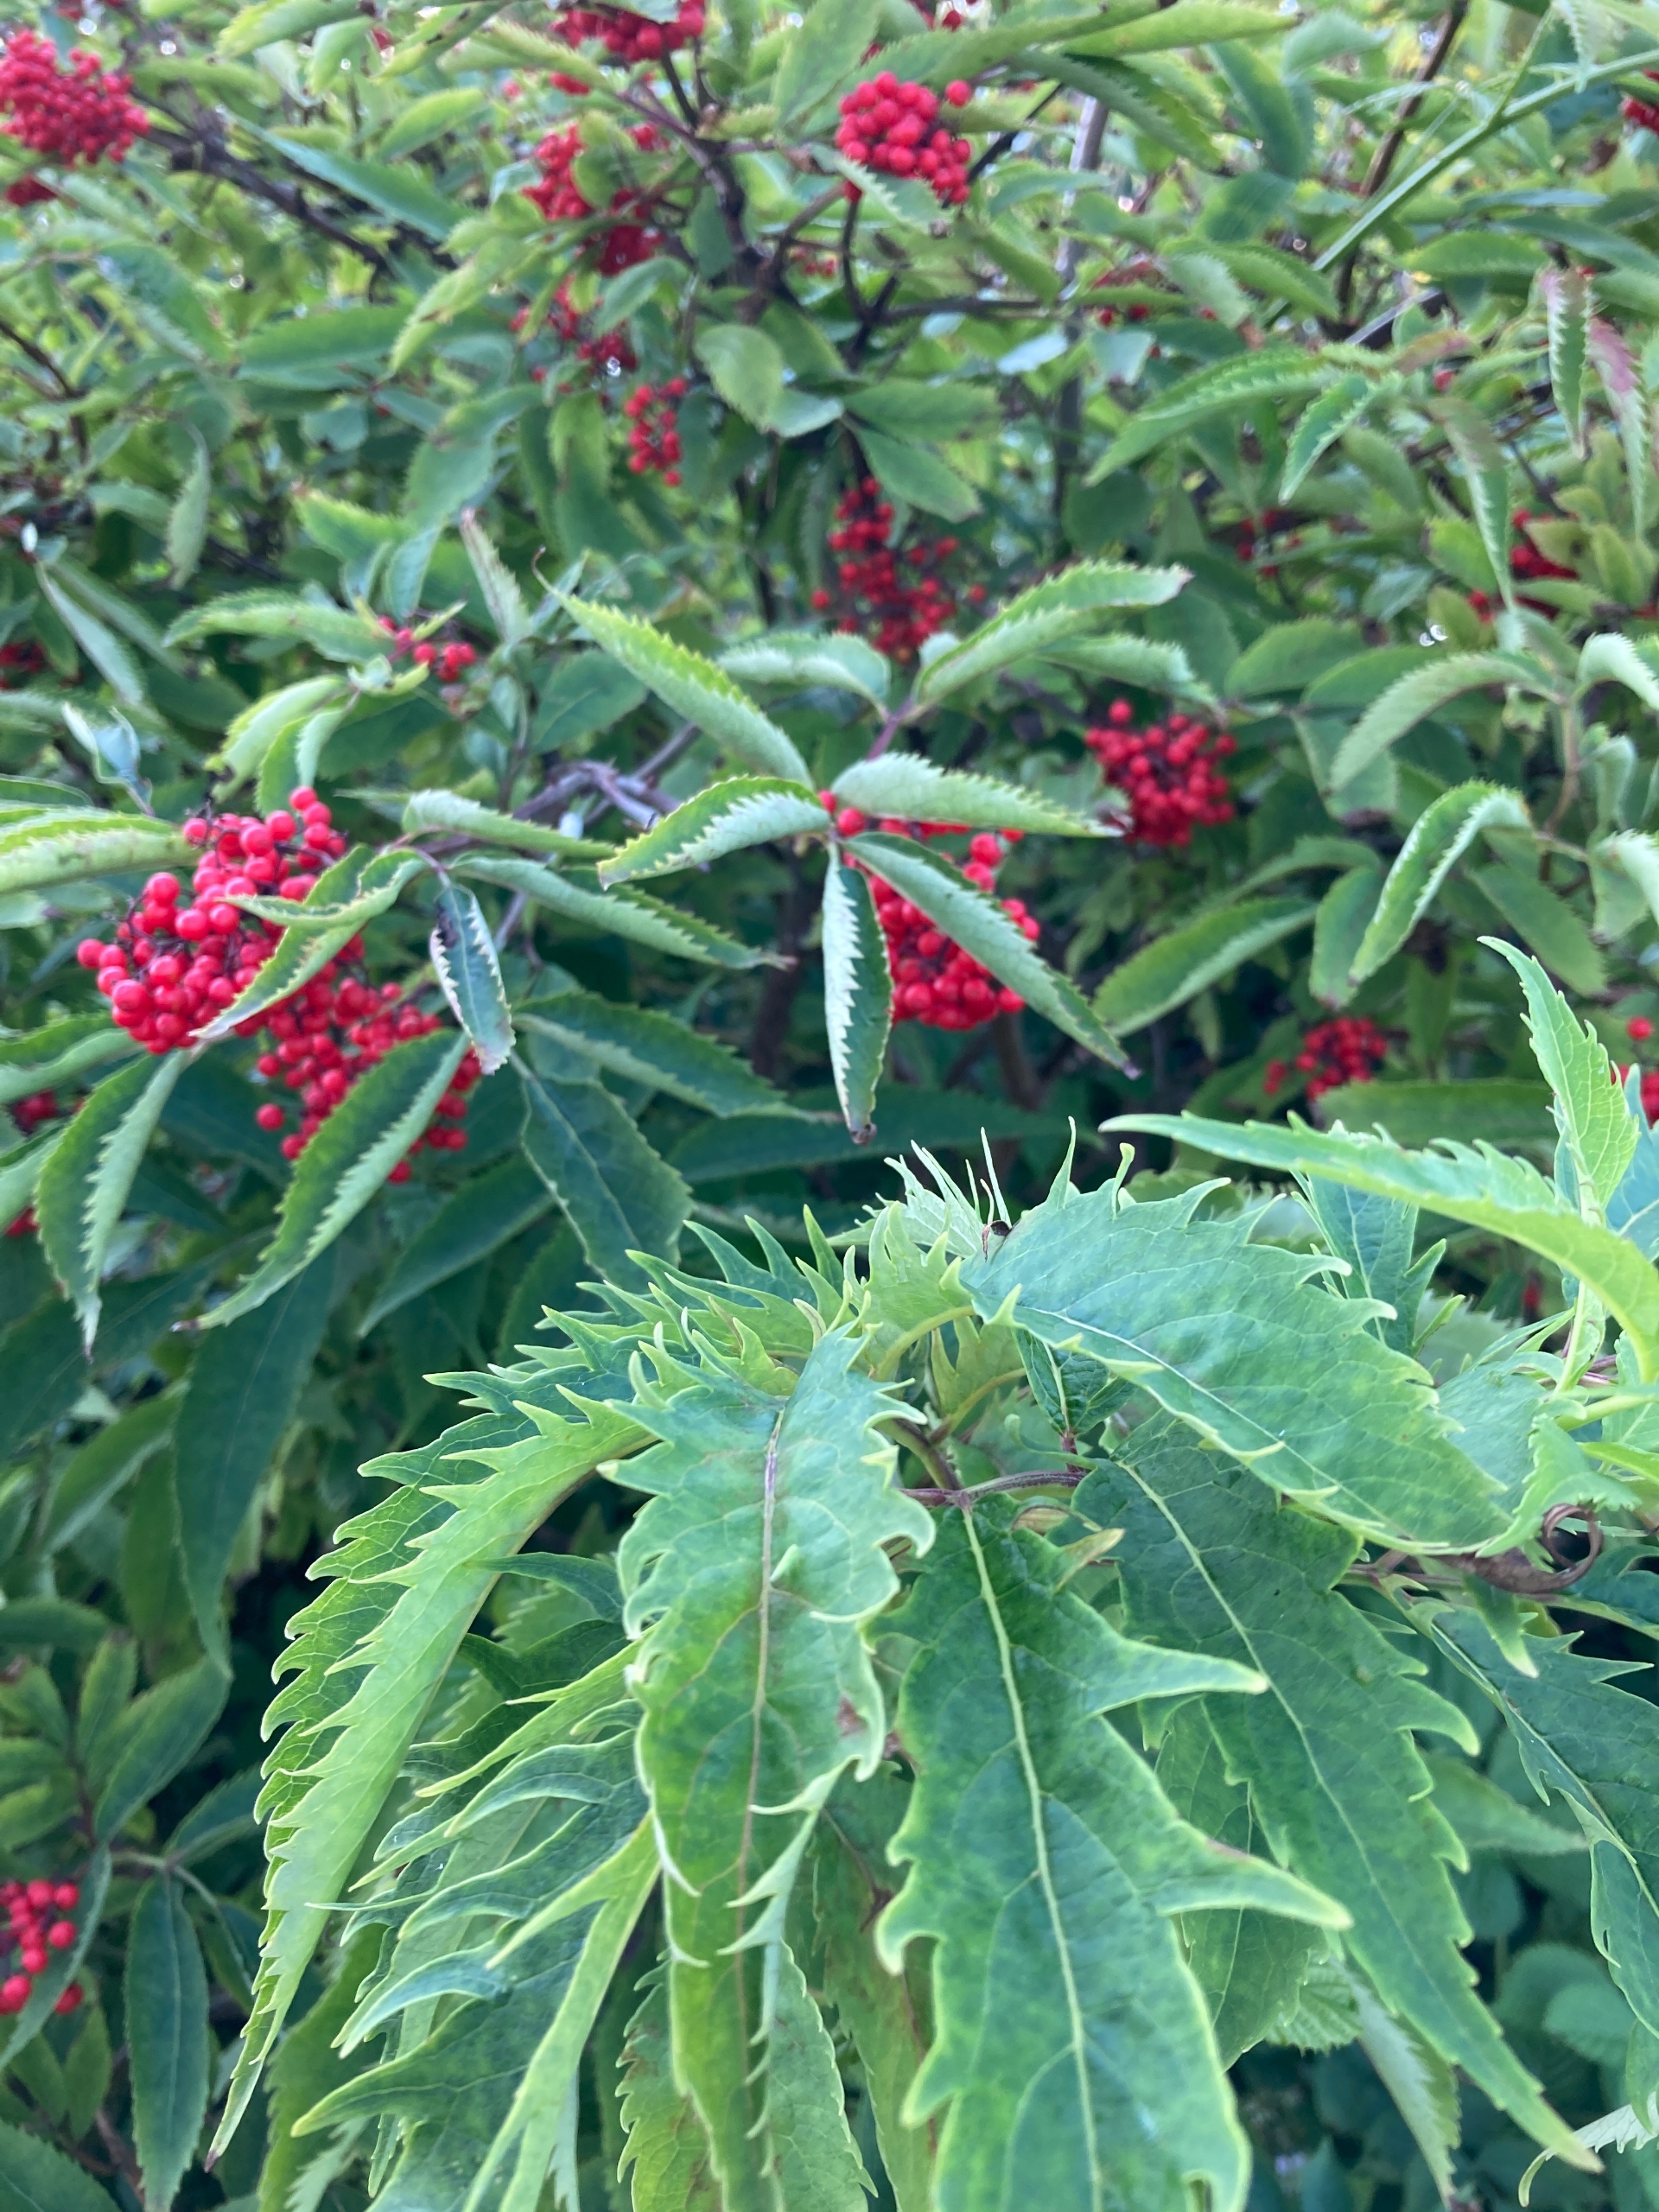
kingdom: Plantae
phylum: Tracheophyta
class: Magnoliopsida
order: Dipsacales
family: Viburnaceae
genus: Sambucus
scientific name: Sambucus racemosa
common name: Drue-hyld
